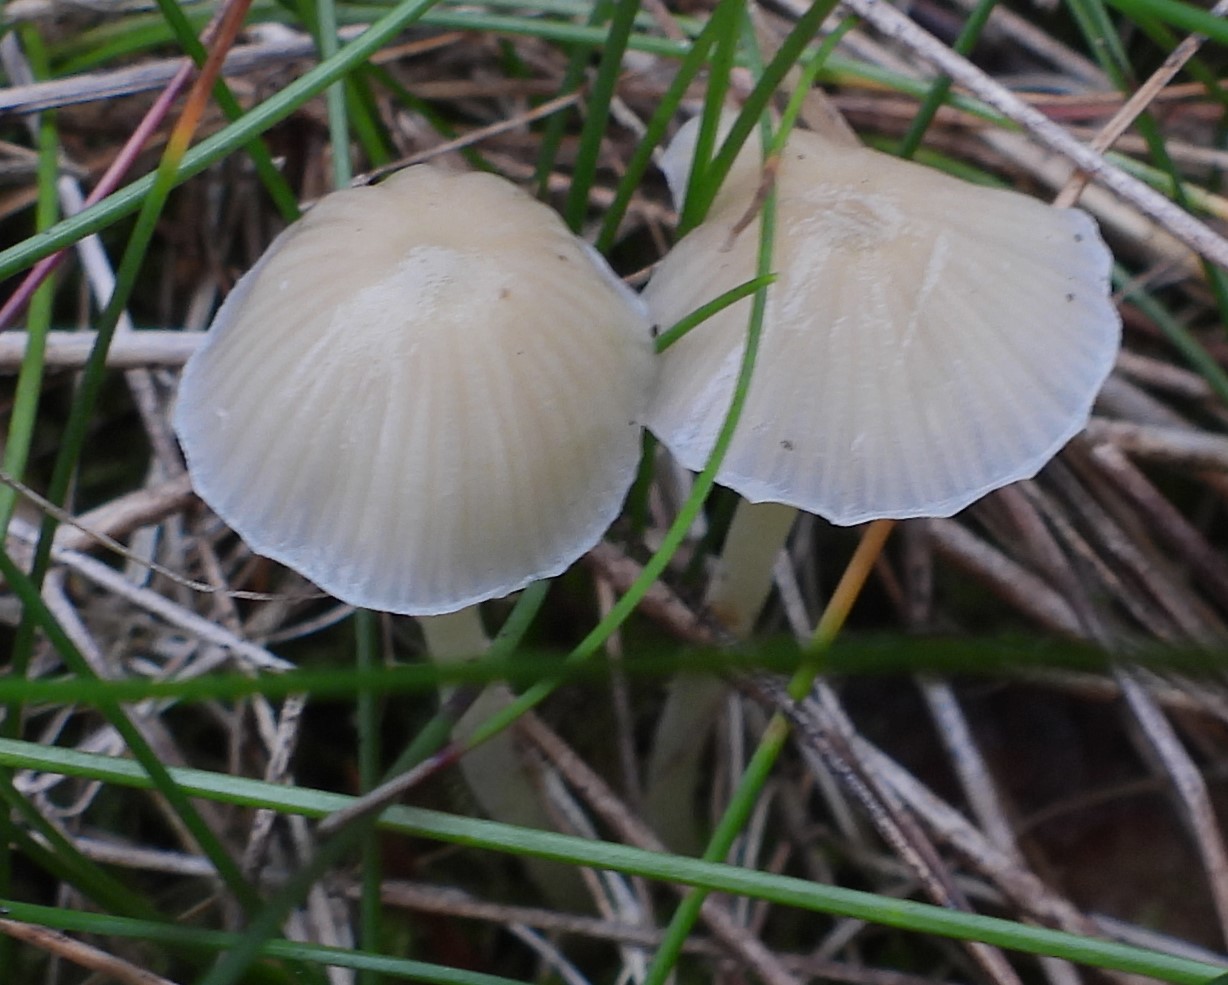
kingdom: Fungi
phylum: Basidiomycota
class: Agaricomycetes
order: Agaricales
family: Mycenaceae
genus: Mycena
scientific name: Mycena epipterygia
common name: gulstokket huesvamp
